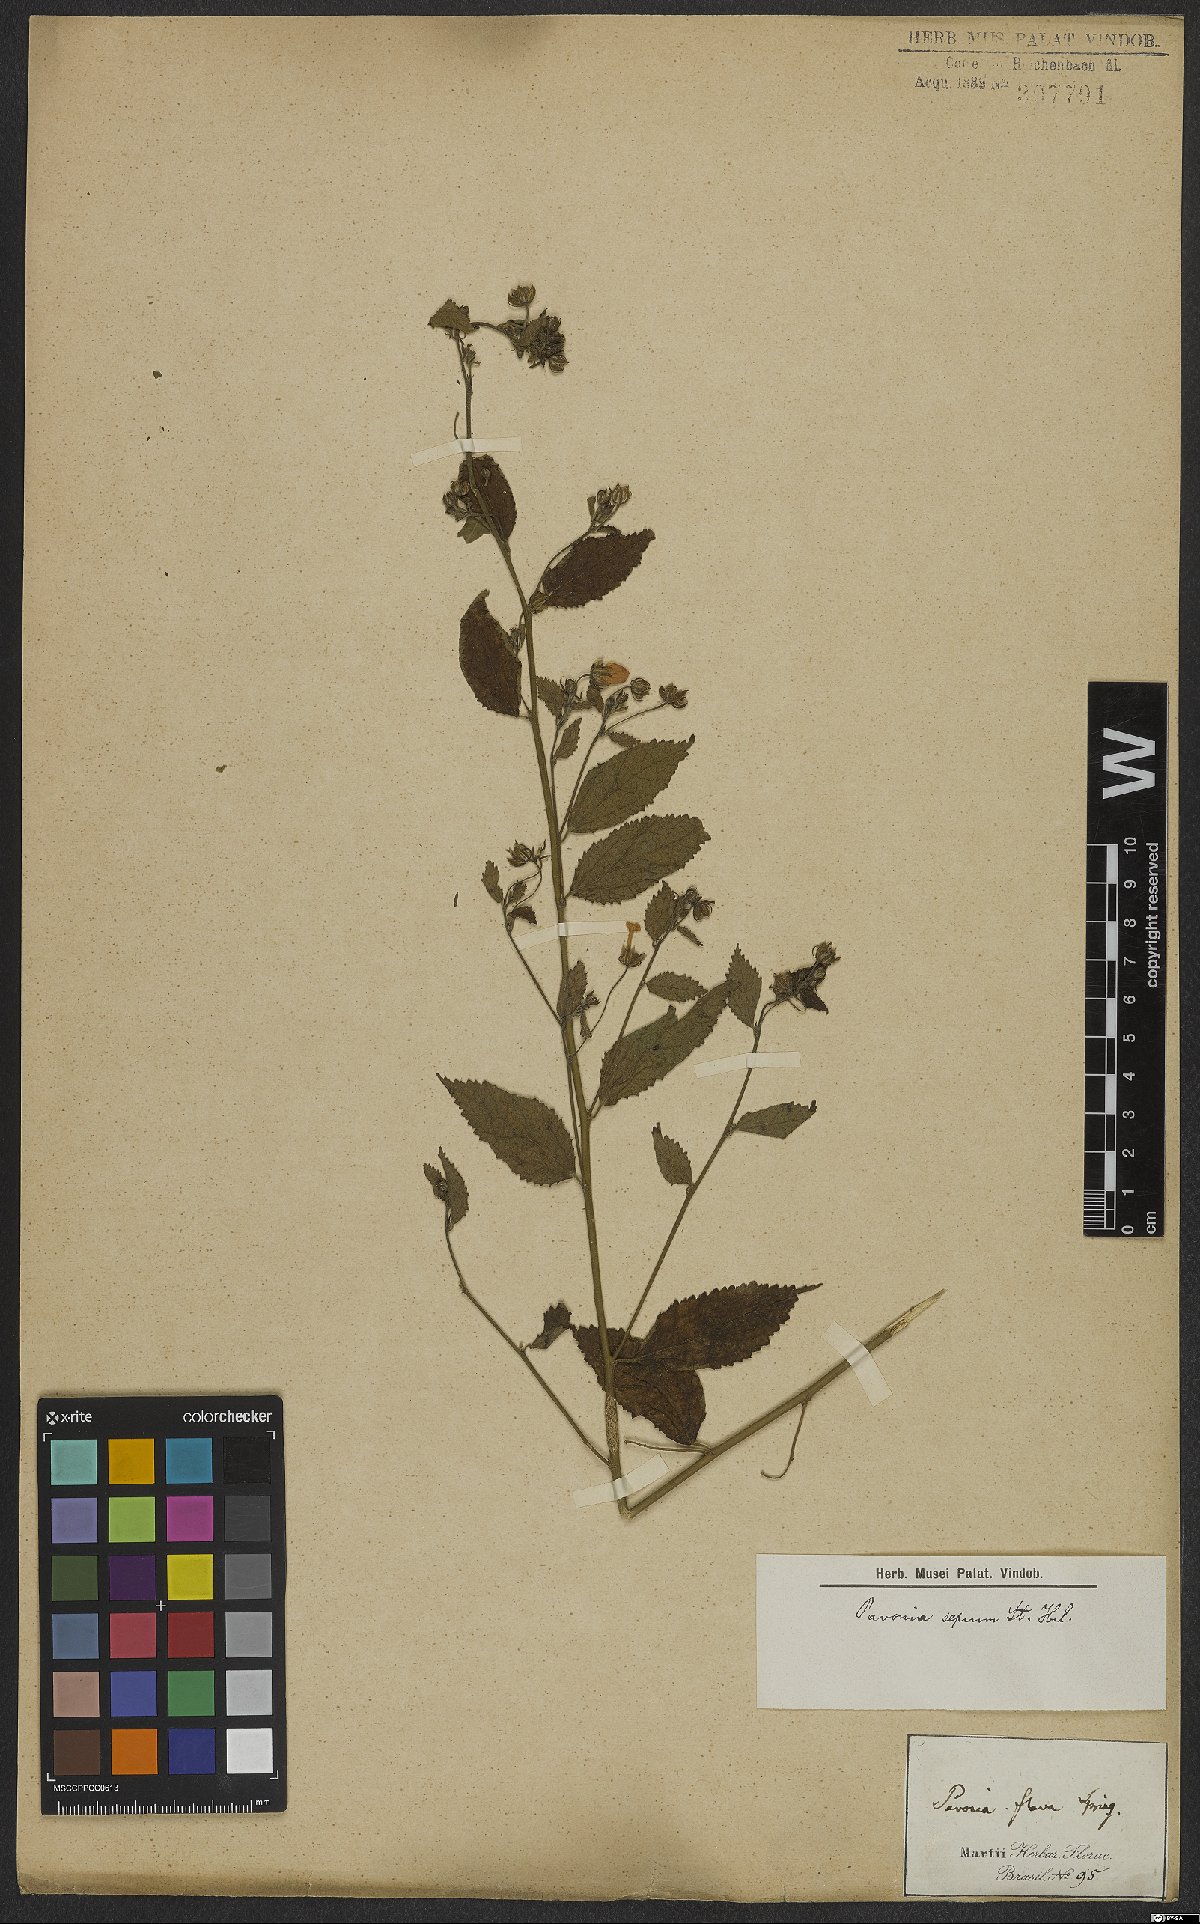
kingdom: Plantae
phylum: Tracheophyta
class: Magnoliopsida
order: Malvales
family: Malvaceae
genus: Pavonia
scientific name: Pavonia sepium
